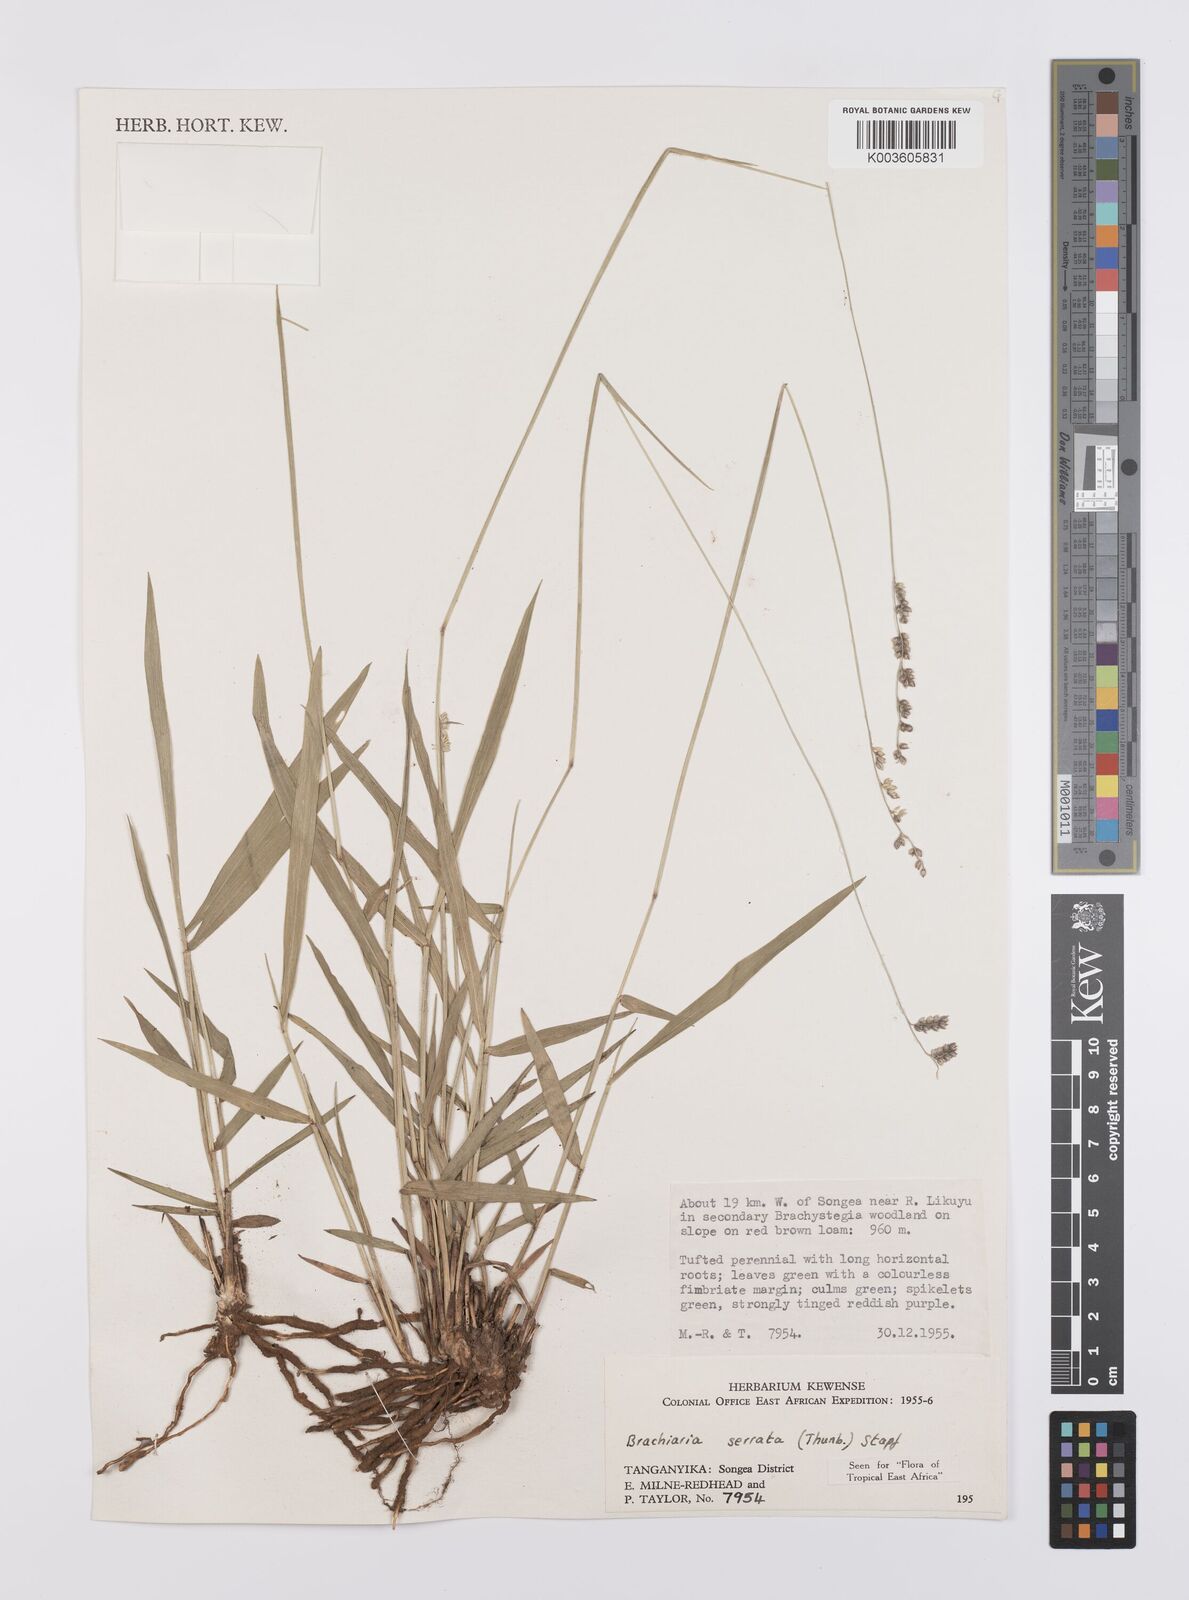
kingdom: Plantae
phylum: Tracheophyta
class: Liliopsida
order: Poales
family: Poaceae
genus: Urochloa
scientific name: Urochloa serrata
